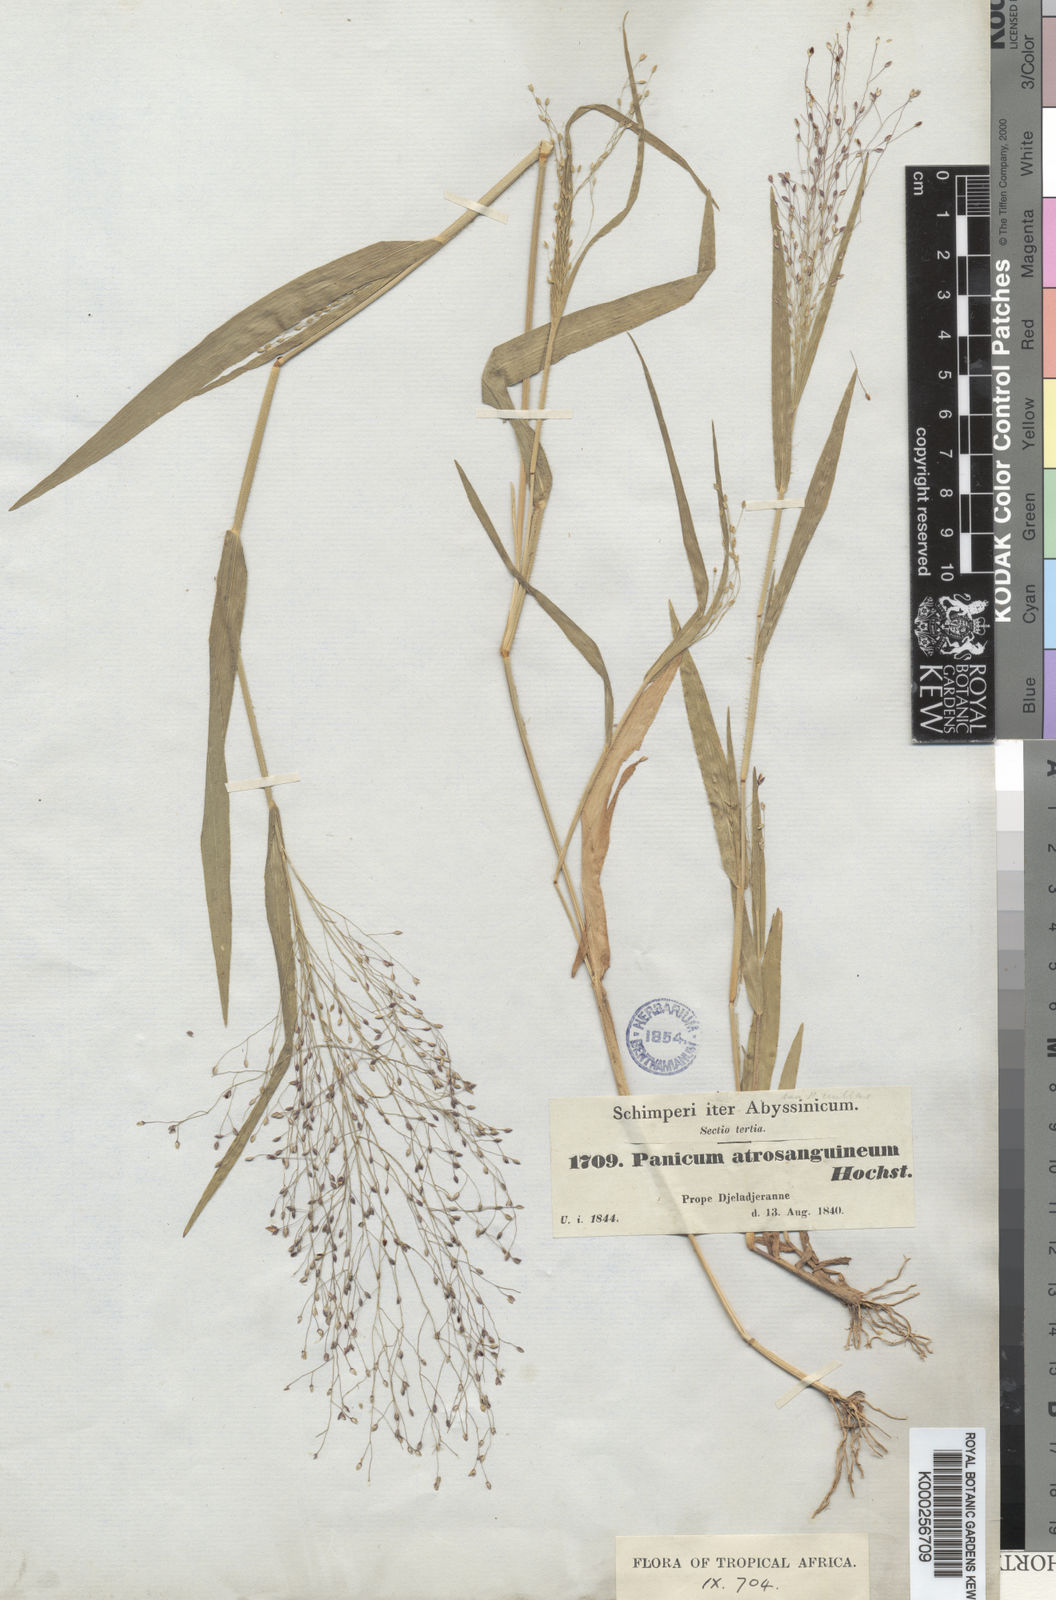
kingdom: Plantae
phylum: Tracheophyta
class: Liliopsida
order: Poales
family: Poaceae
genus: Panicum
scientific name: Panicum atrosanguineum
